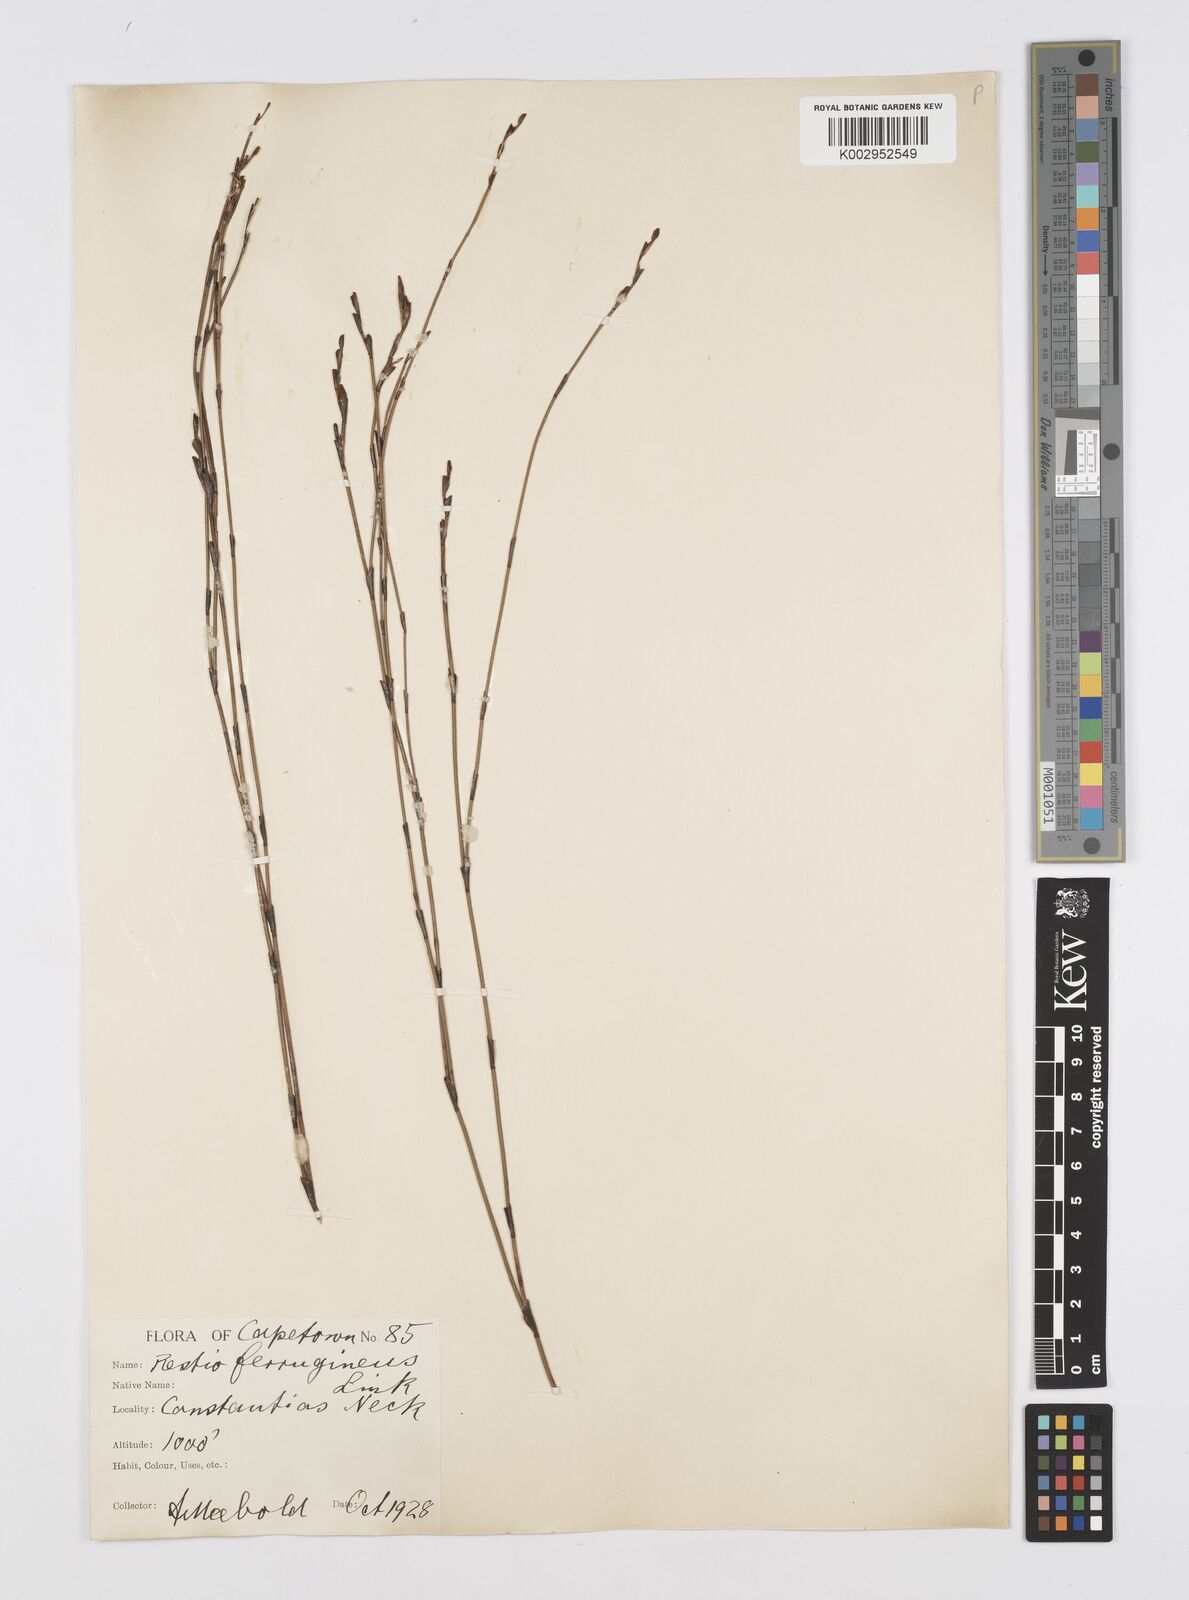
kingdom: Plantae
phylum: Tracheophyta
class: Liliopsida
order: Poales
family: Restionaceae
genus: Restio
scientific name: Restio gaudichaudianus
